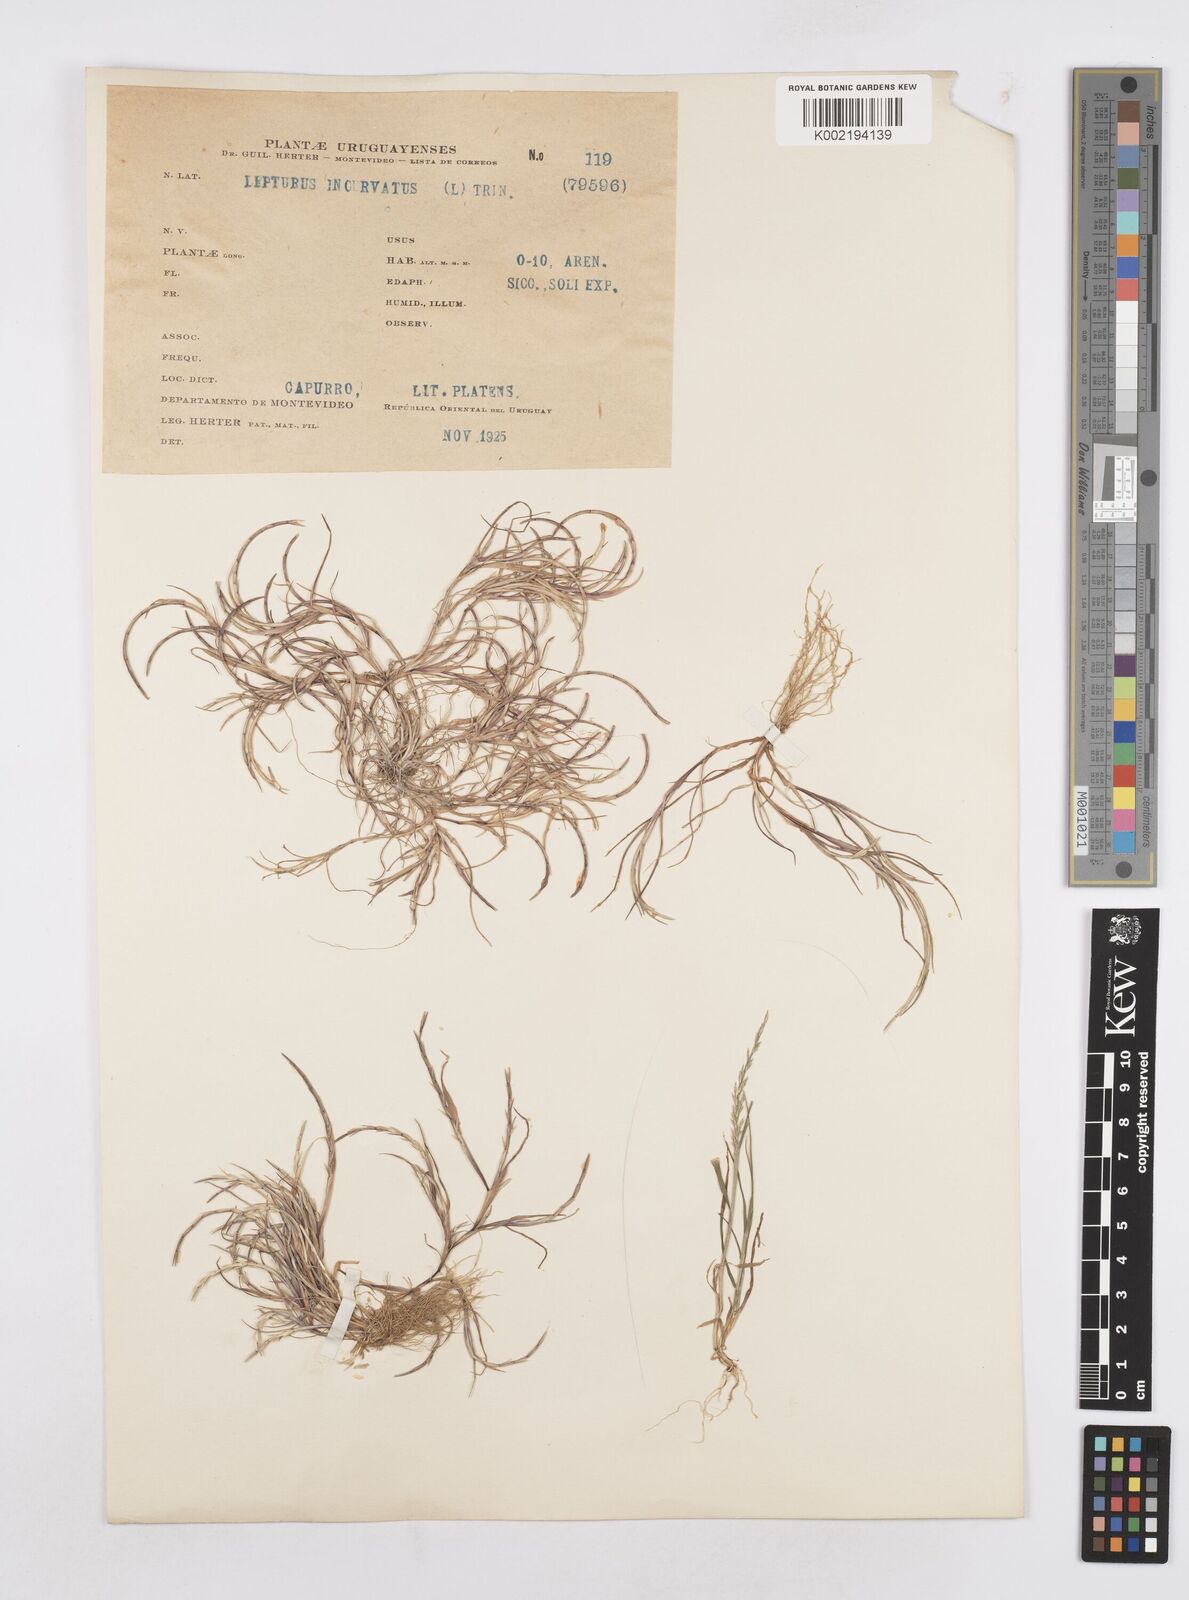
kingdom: Plantae
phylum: Tracheophyta
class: Liliopsida
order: Poales
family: Poaceae
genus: Parapholis
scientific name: Parapholis incurva
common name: Curved sicklegrass
